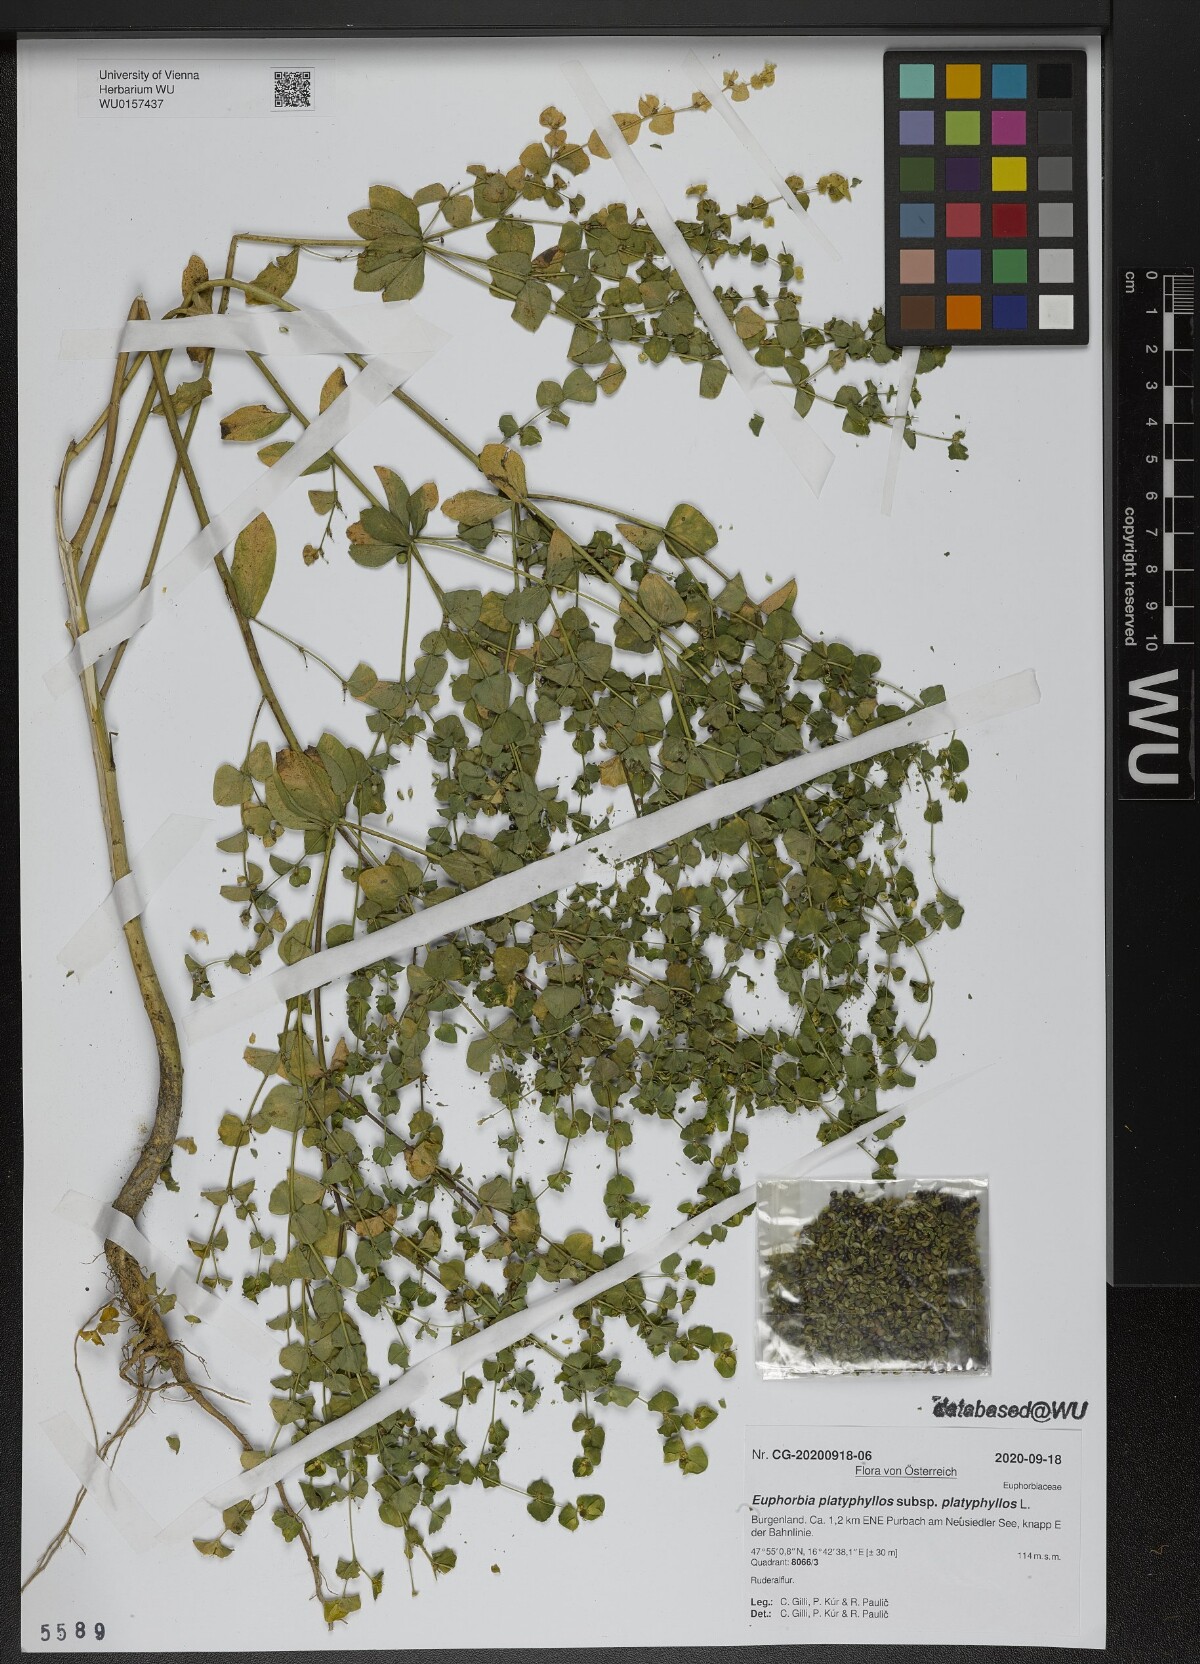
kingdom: Plantae
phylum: Tracheophyta
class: Magnoliopsida
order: Malpighiales
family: Euphorbiaceae
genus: Euphorbia
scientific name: Euphorbia platyphyllos
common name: Broad-leaved spurge
